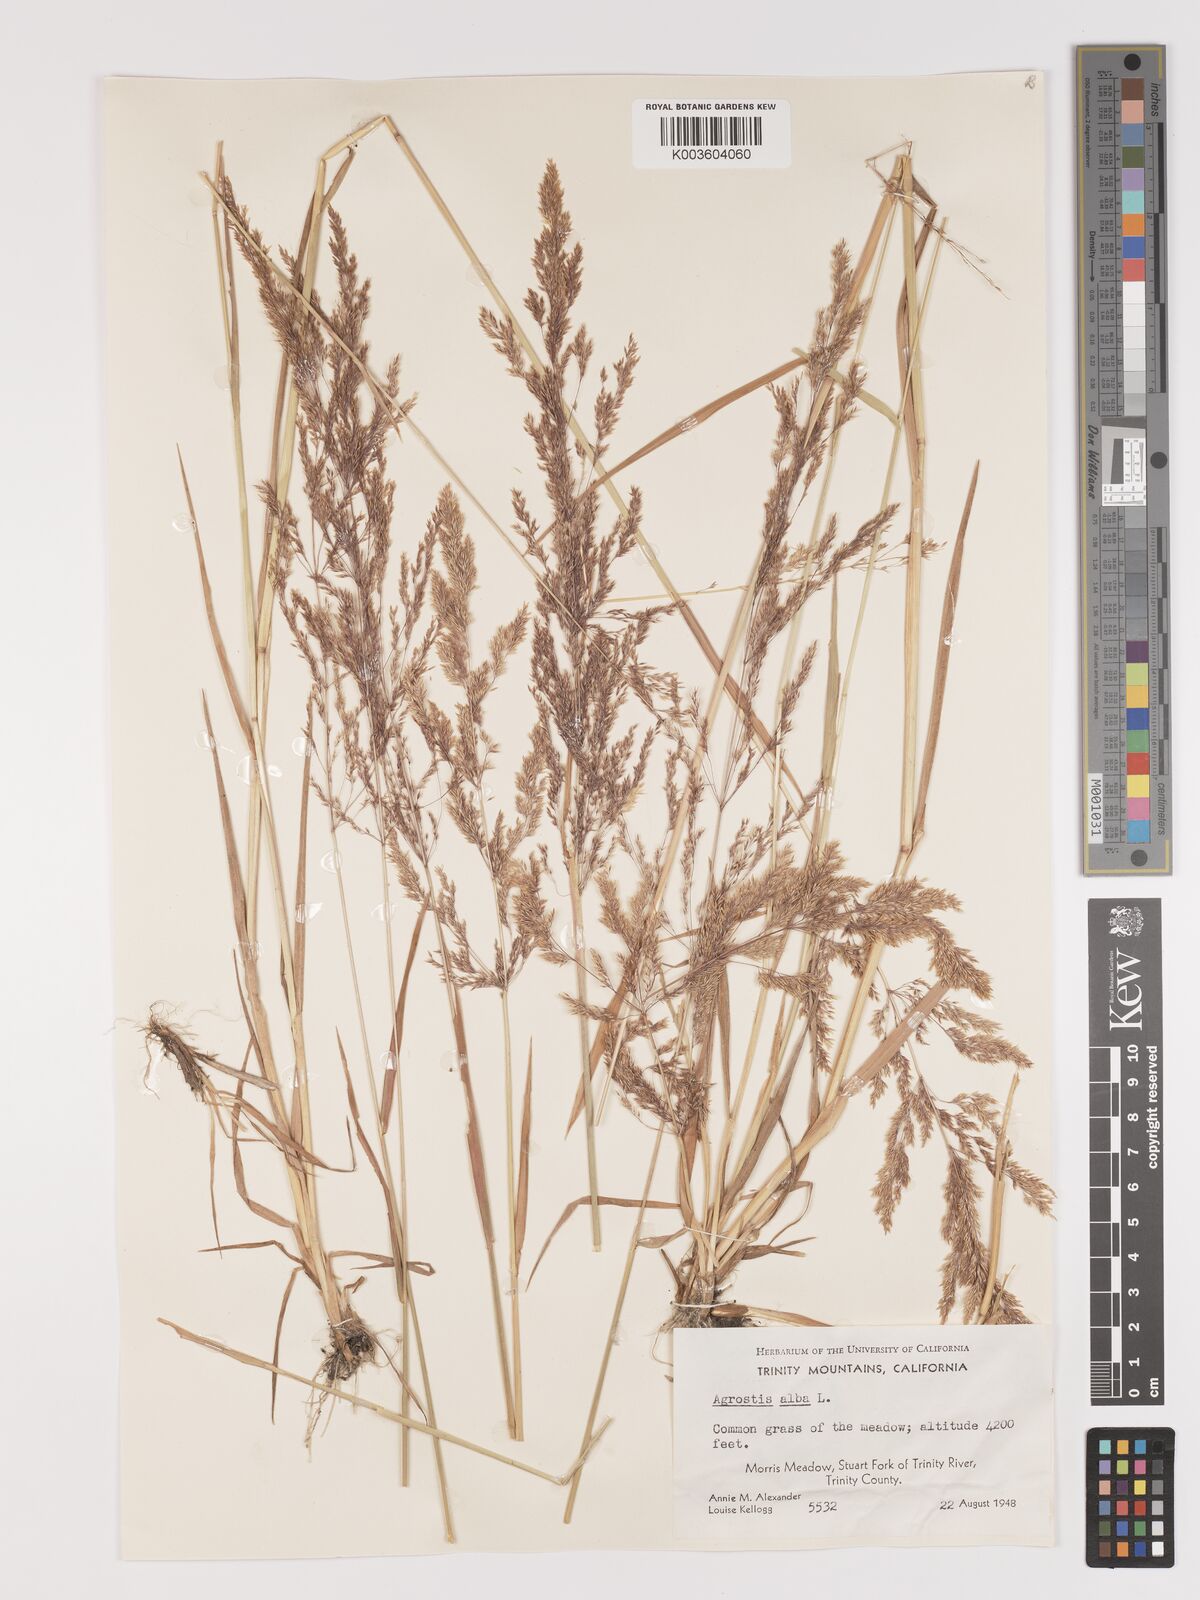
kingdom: Plantae
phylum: Tracheophyta
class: Liliopsida
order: Poales
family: Poaceae
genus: Agrostis
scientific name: Agrostis gigantea
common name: Black bent
